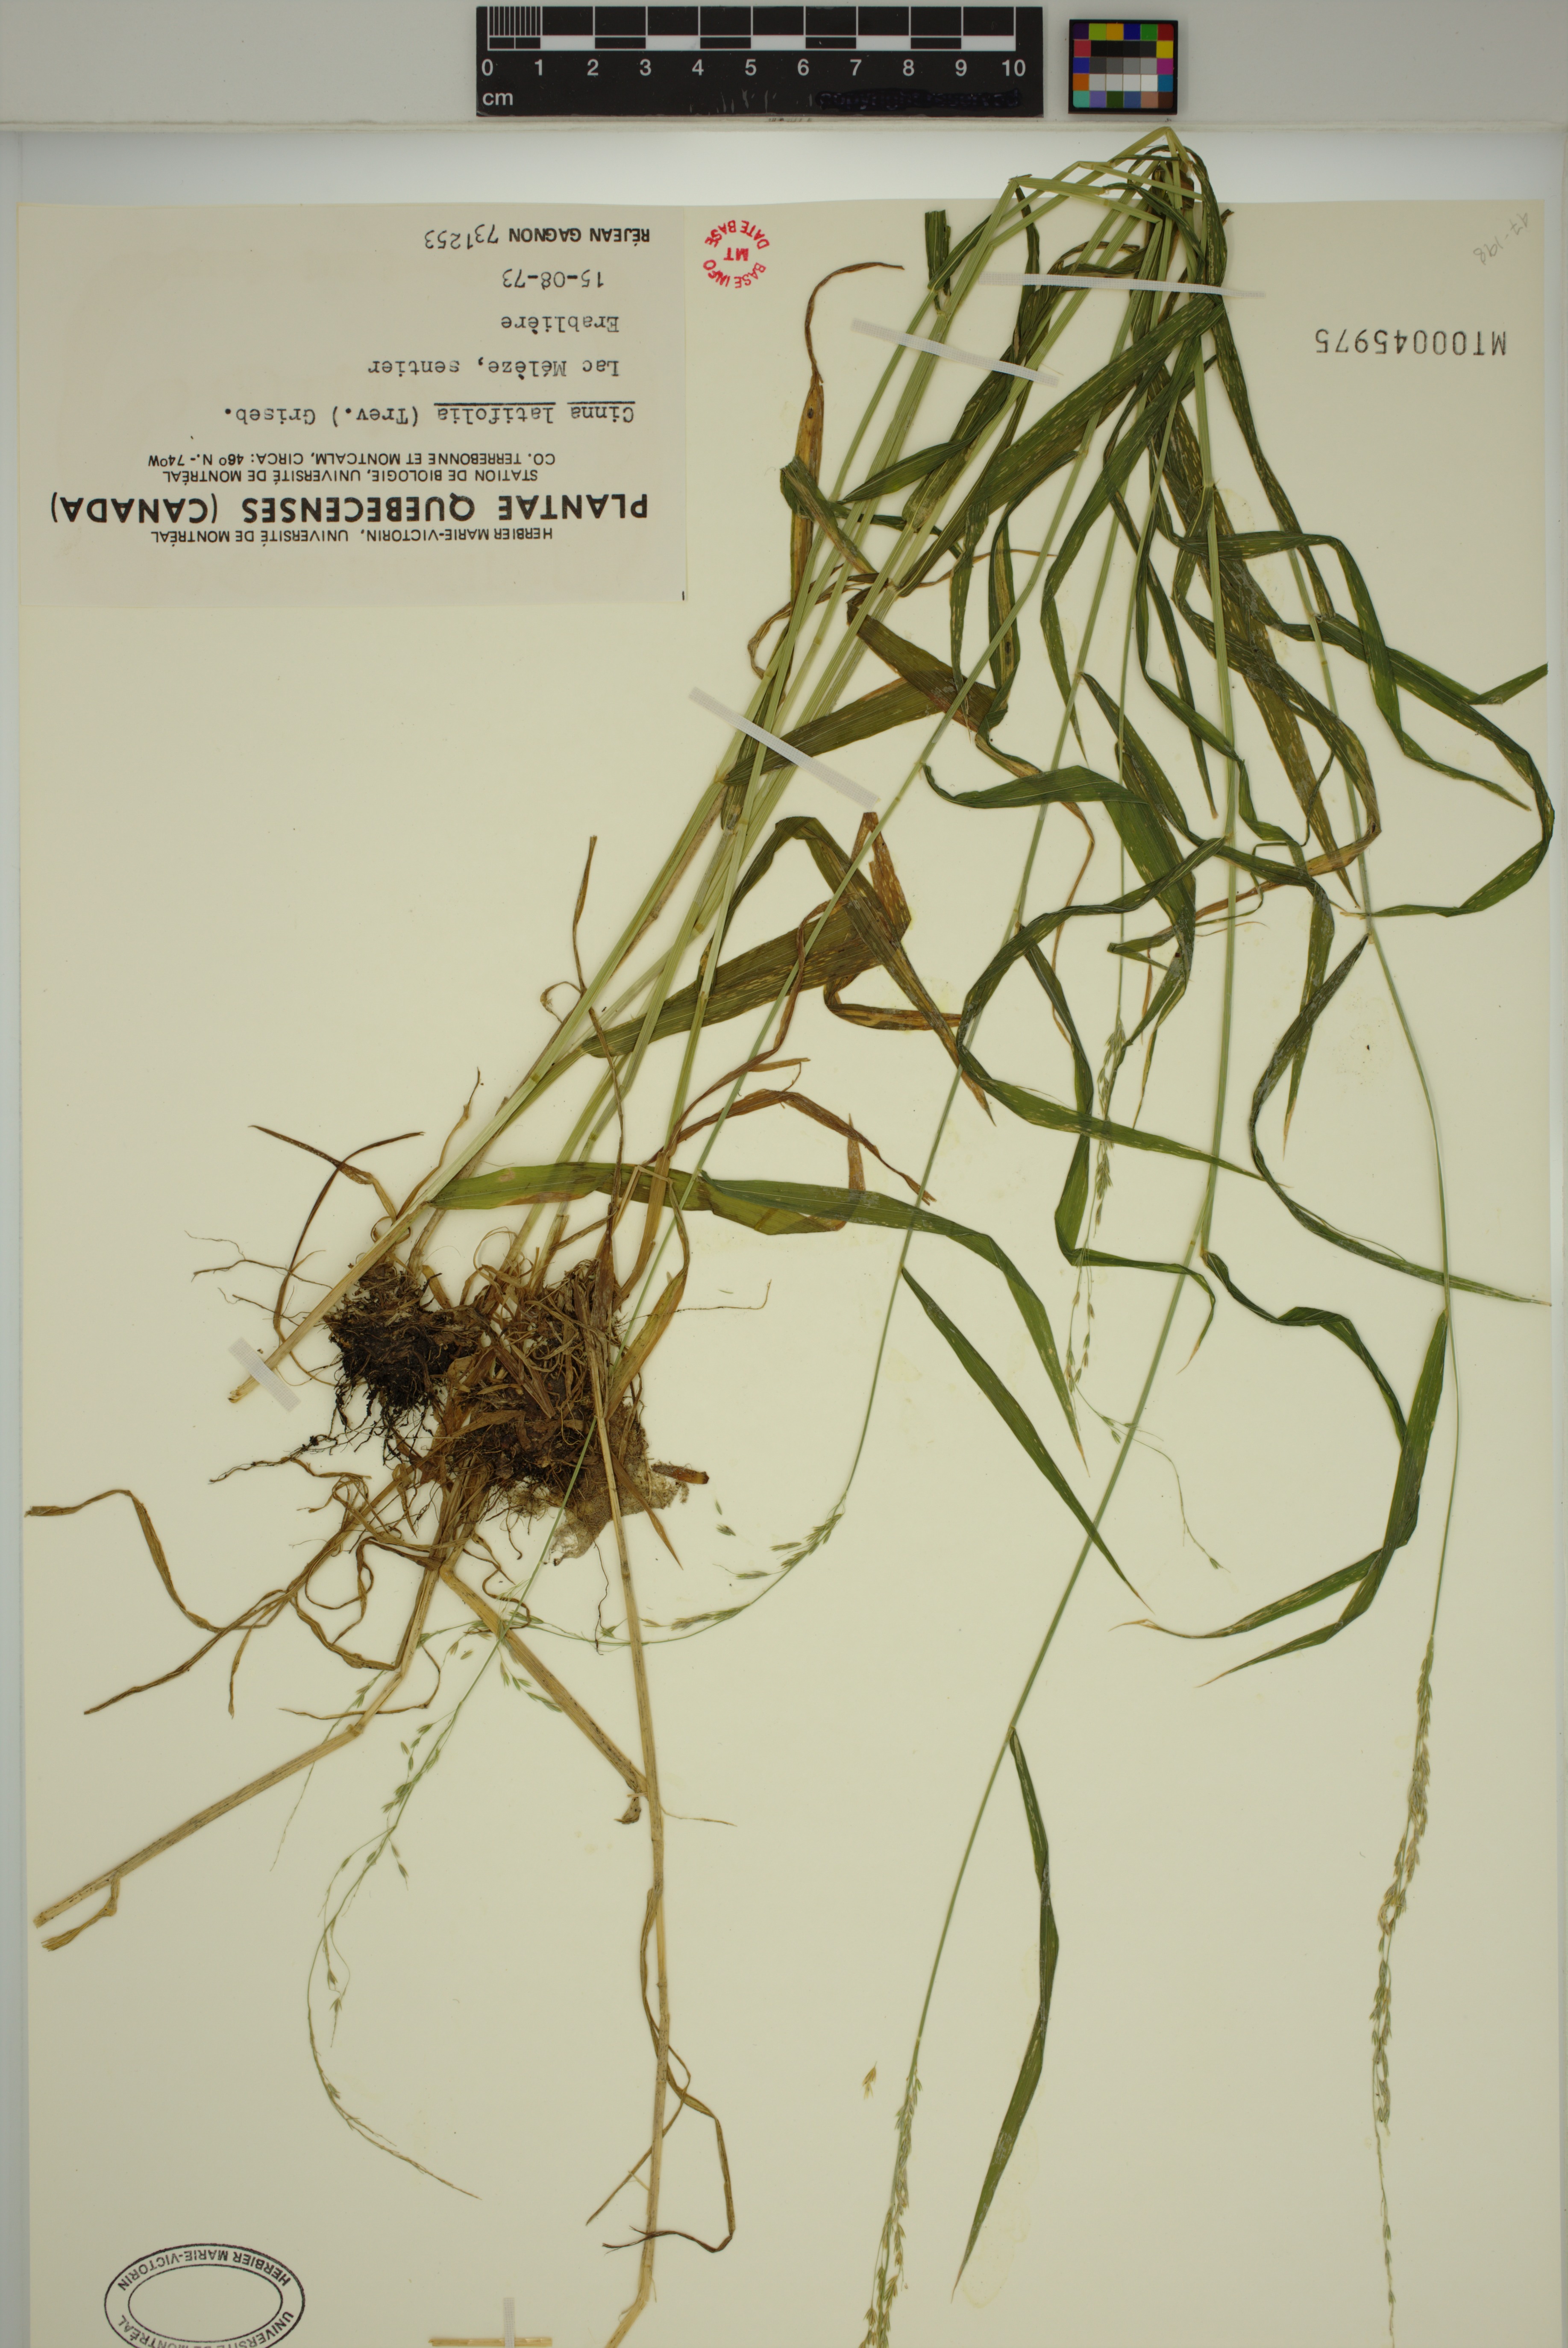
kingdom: Plantae
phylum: Tracheophyta
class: Liliopsida
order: Poales
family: Poaceae
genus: Cinna
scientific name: Cinna latifolia
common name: Drooping woodreed
